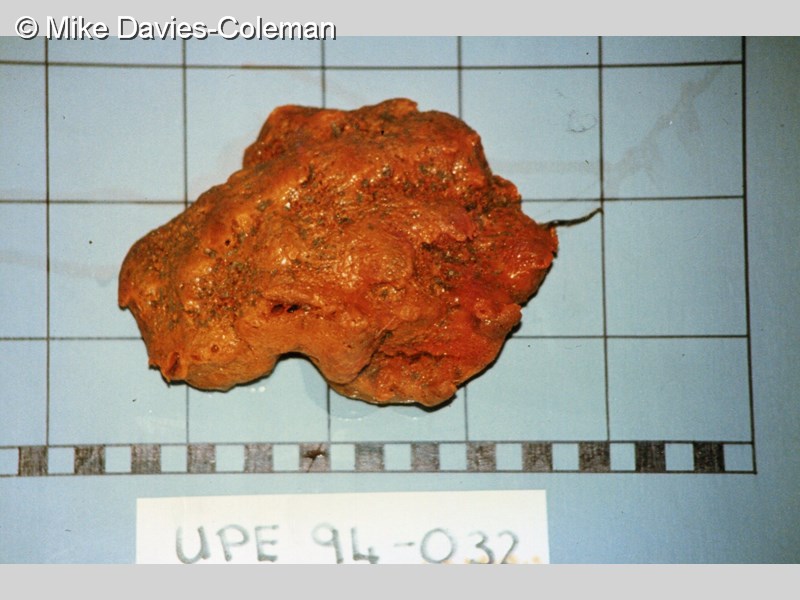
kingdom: Animalia
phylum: Porifera
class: Demospongiae
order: Bubarida
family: Dictyonellidae
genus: Acanthella
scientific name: Acanthella
